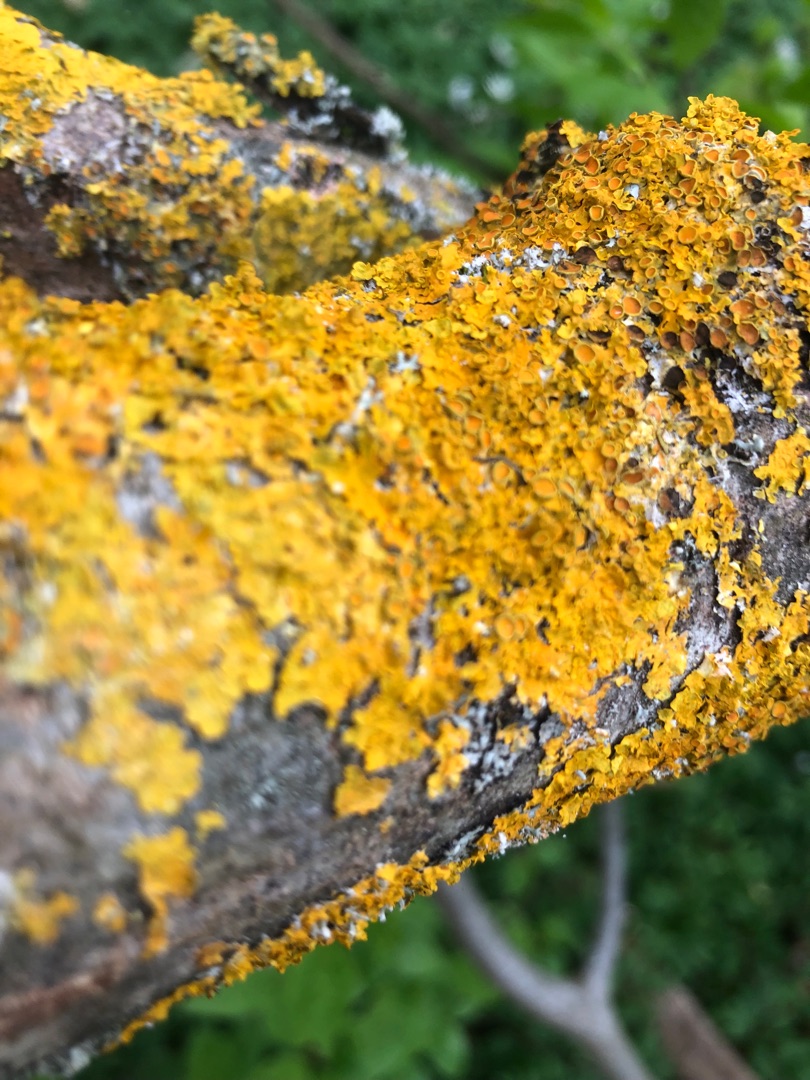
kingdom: Fungi
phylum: Ascomycota
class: Lecanoromycetes
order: Teloschistales
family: Teloschistaceae
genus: Xanthoria
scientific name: Xanthoria parietina
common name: Almindelig væggelav
